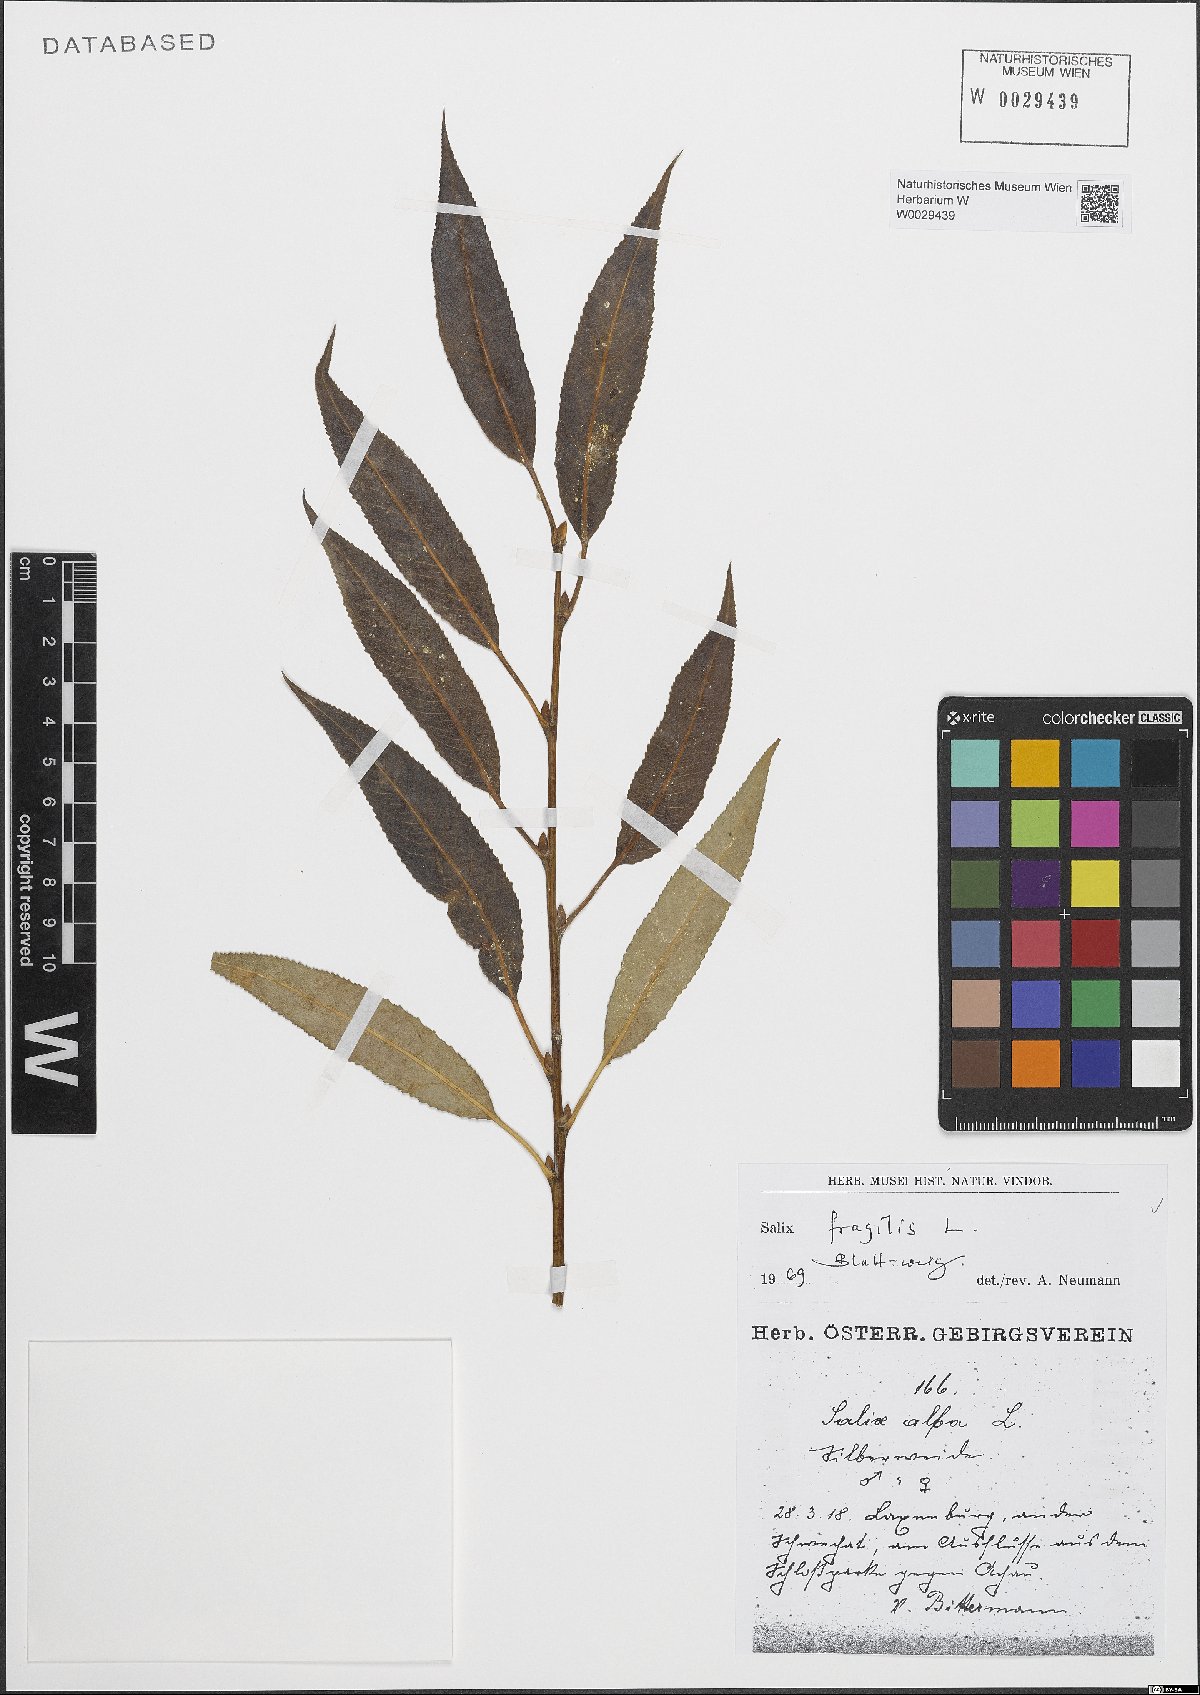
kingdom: Plantae
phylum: Tracheophyta
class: Magnoliopsida
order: Malpighiales
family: Salicaceae
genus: Salix
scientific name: Salix fragilis
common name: Crack willow
